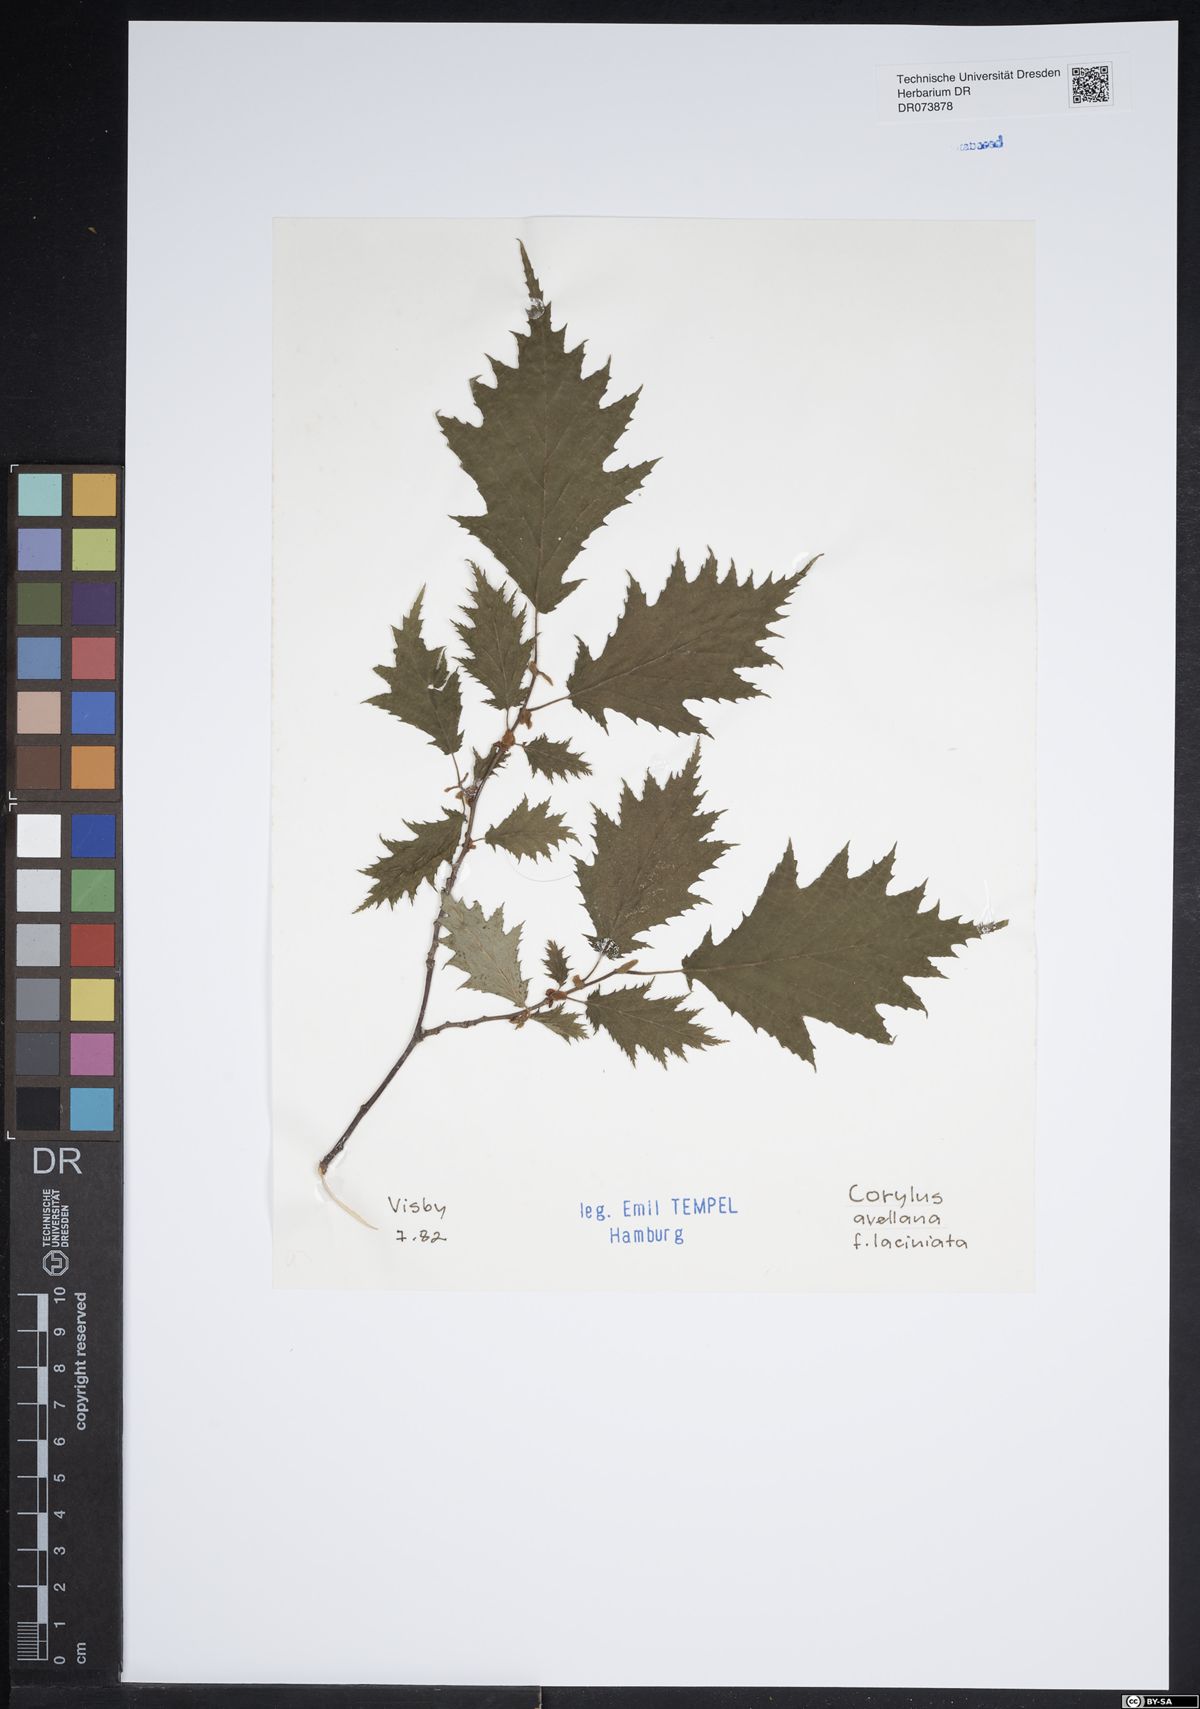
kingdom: Plantae
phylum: Tracheophyta
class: Magnoliopsida
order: Fagales
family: Betulaceae
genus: Corylus
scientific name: Corylus avellana
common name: European hazel
